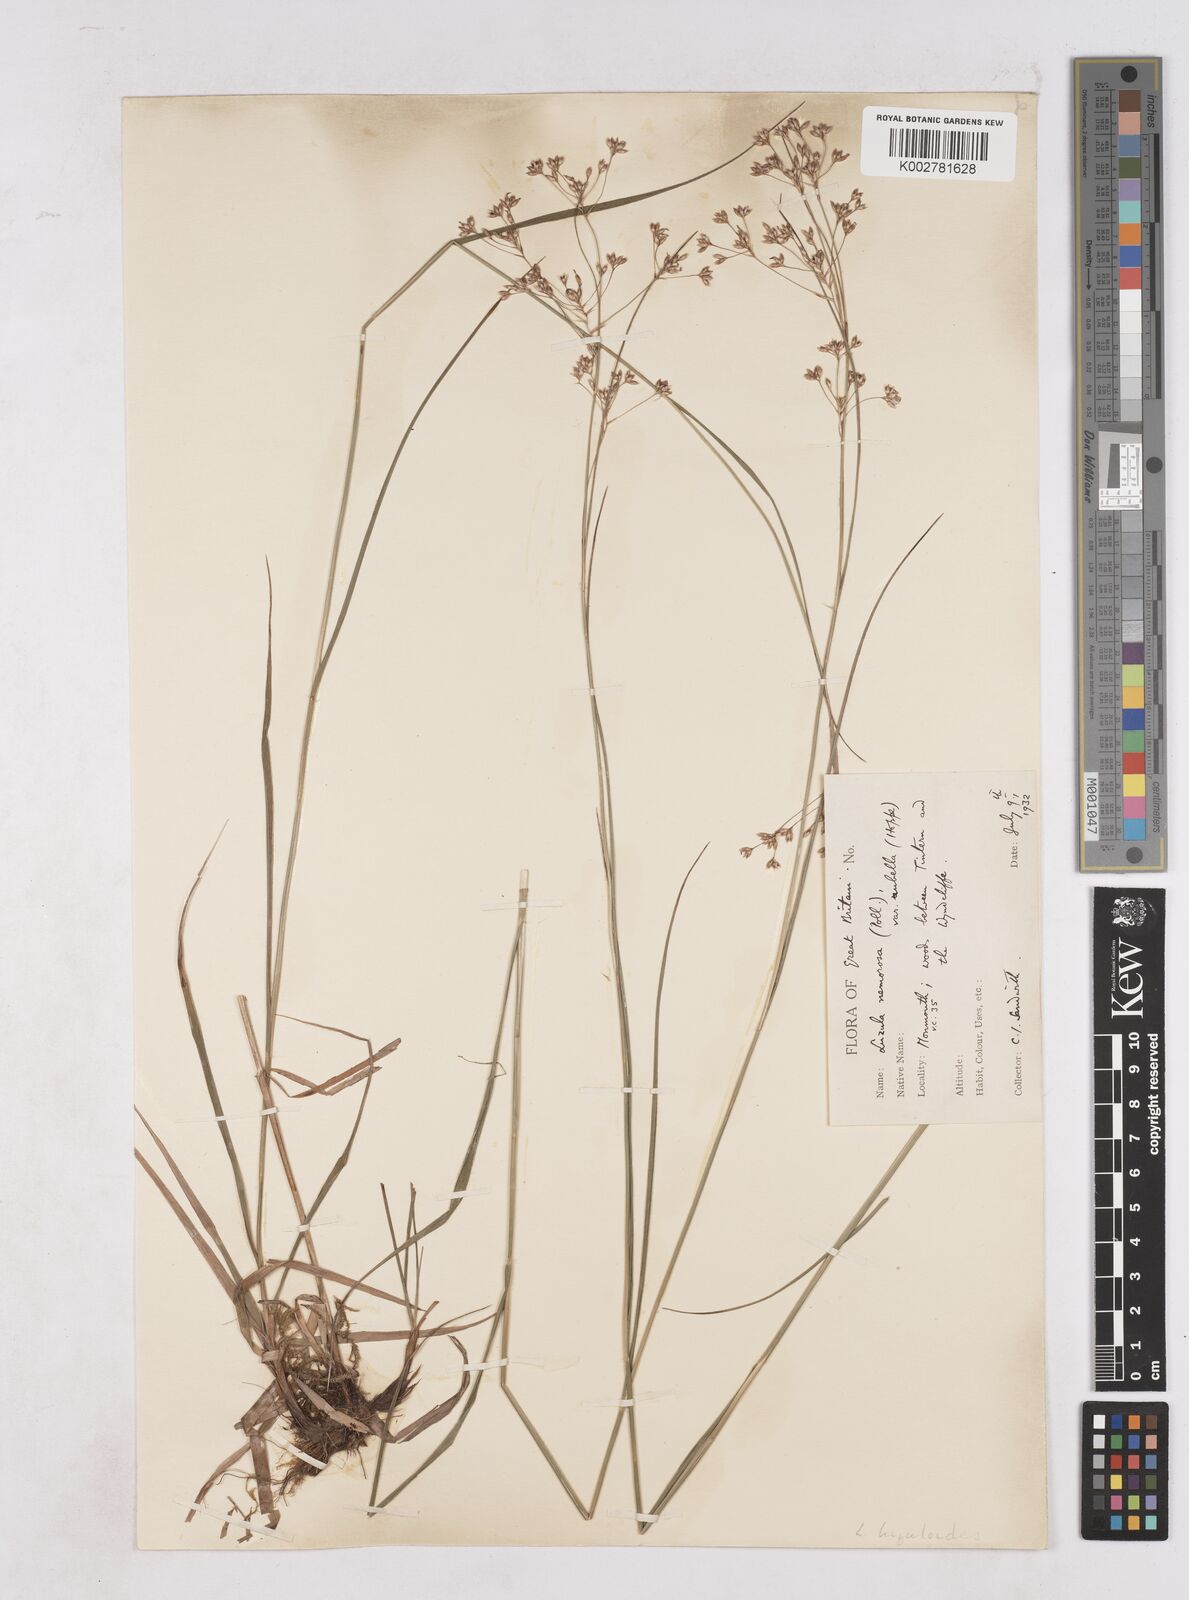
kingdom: Plantae
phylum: Tracheophyta
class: Liliopsida
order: Poales
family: Juncaceae
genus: Luzula
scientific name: Luzula luzuloides
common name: White wood-rush
